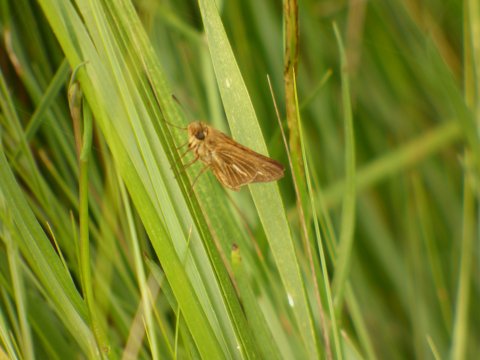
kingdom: Animalia
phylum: Arthropoda
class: Insecta
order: Lepidoptera
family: Hesperiidae
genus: Panoquina
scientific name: Panoquina panoquin
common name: Salt Marsh Skipper
